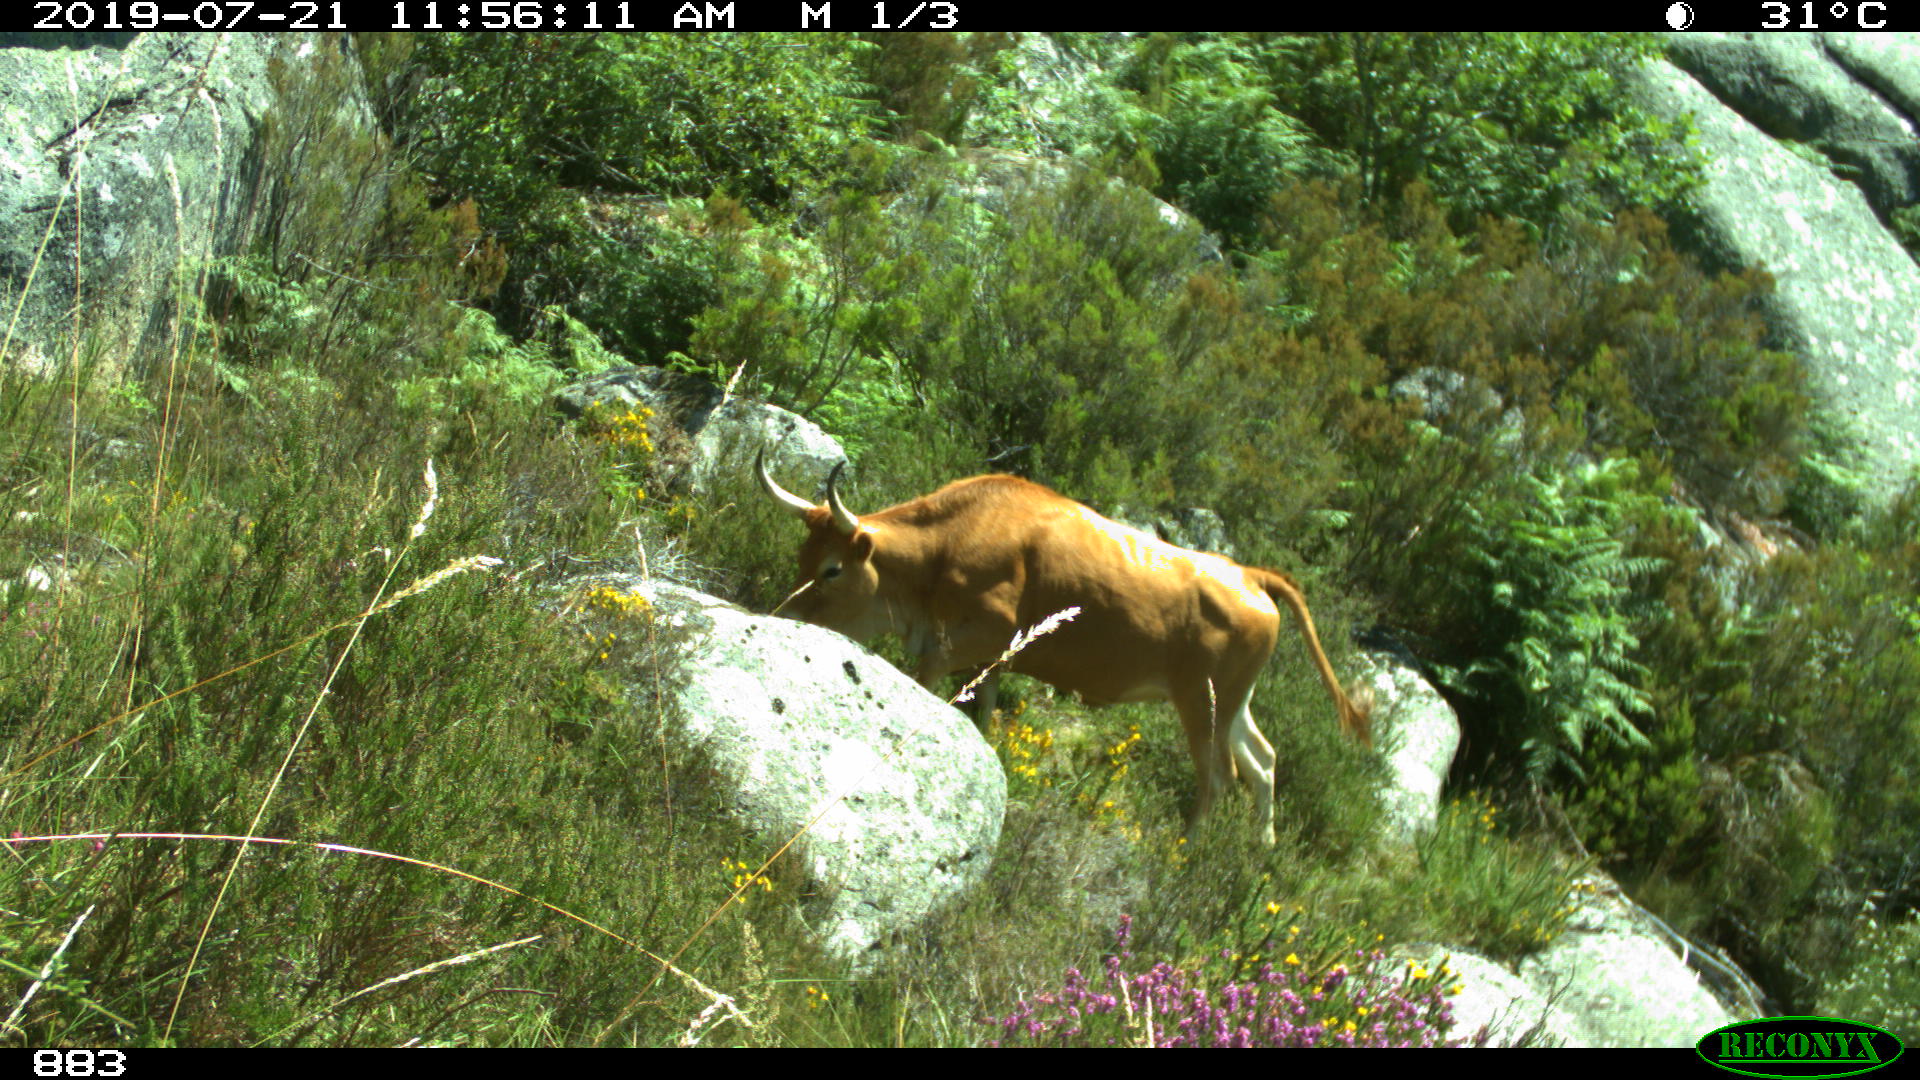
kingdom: Animalia
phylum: Chordata
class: Mammalia
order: Artiodactyla
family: Bovidae
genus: Bos
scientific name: Bos taurus
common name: Domesticated cattle
